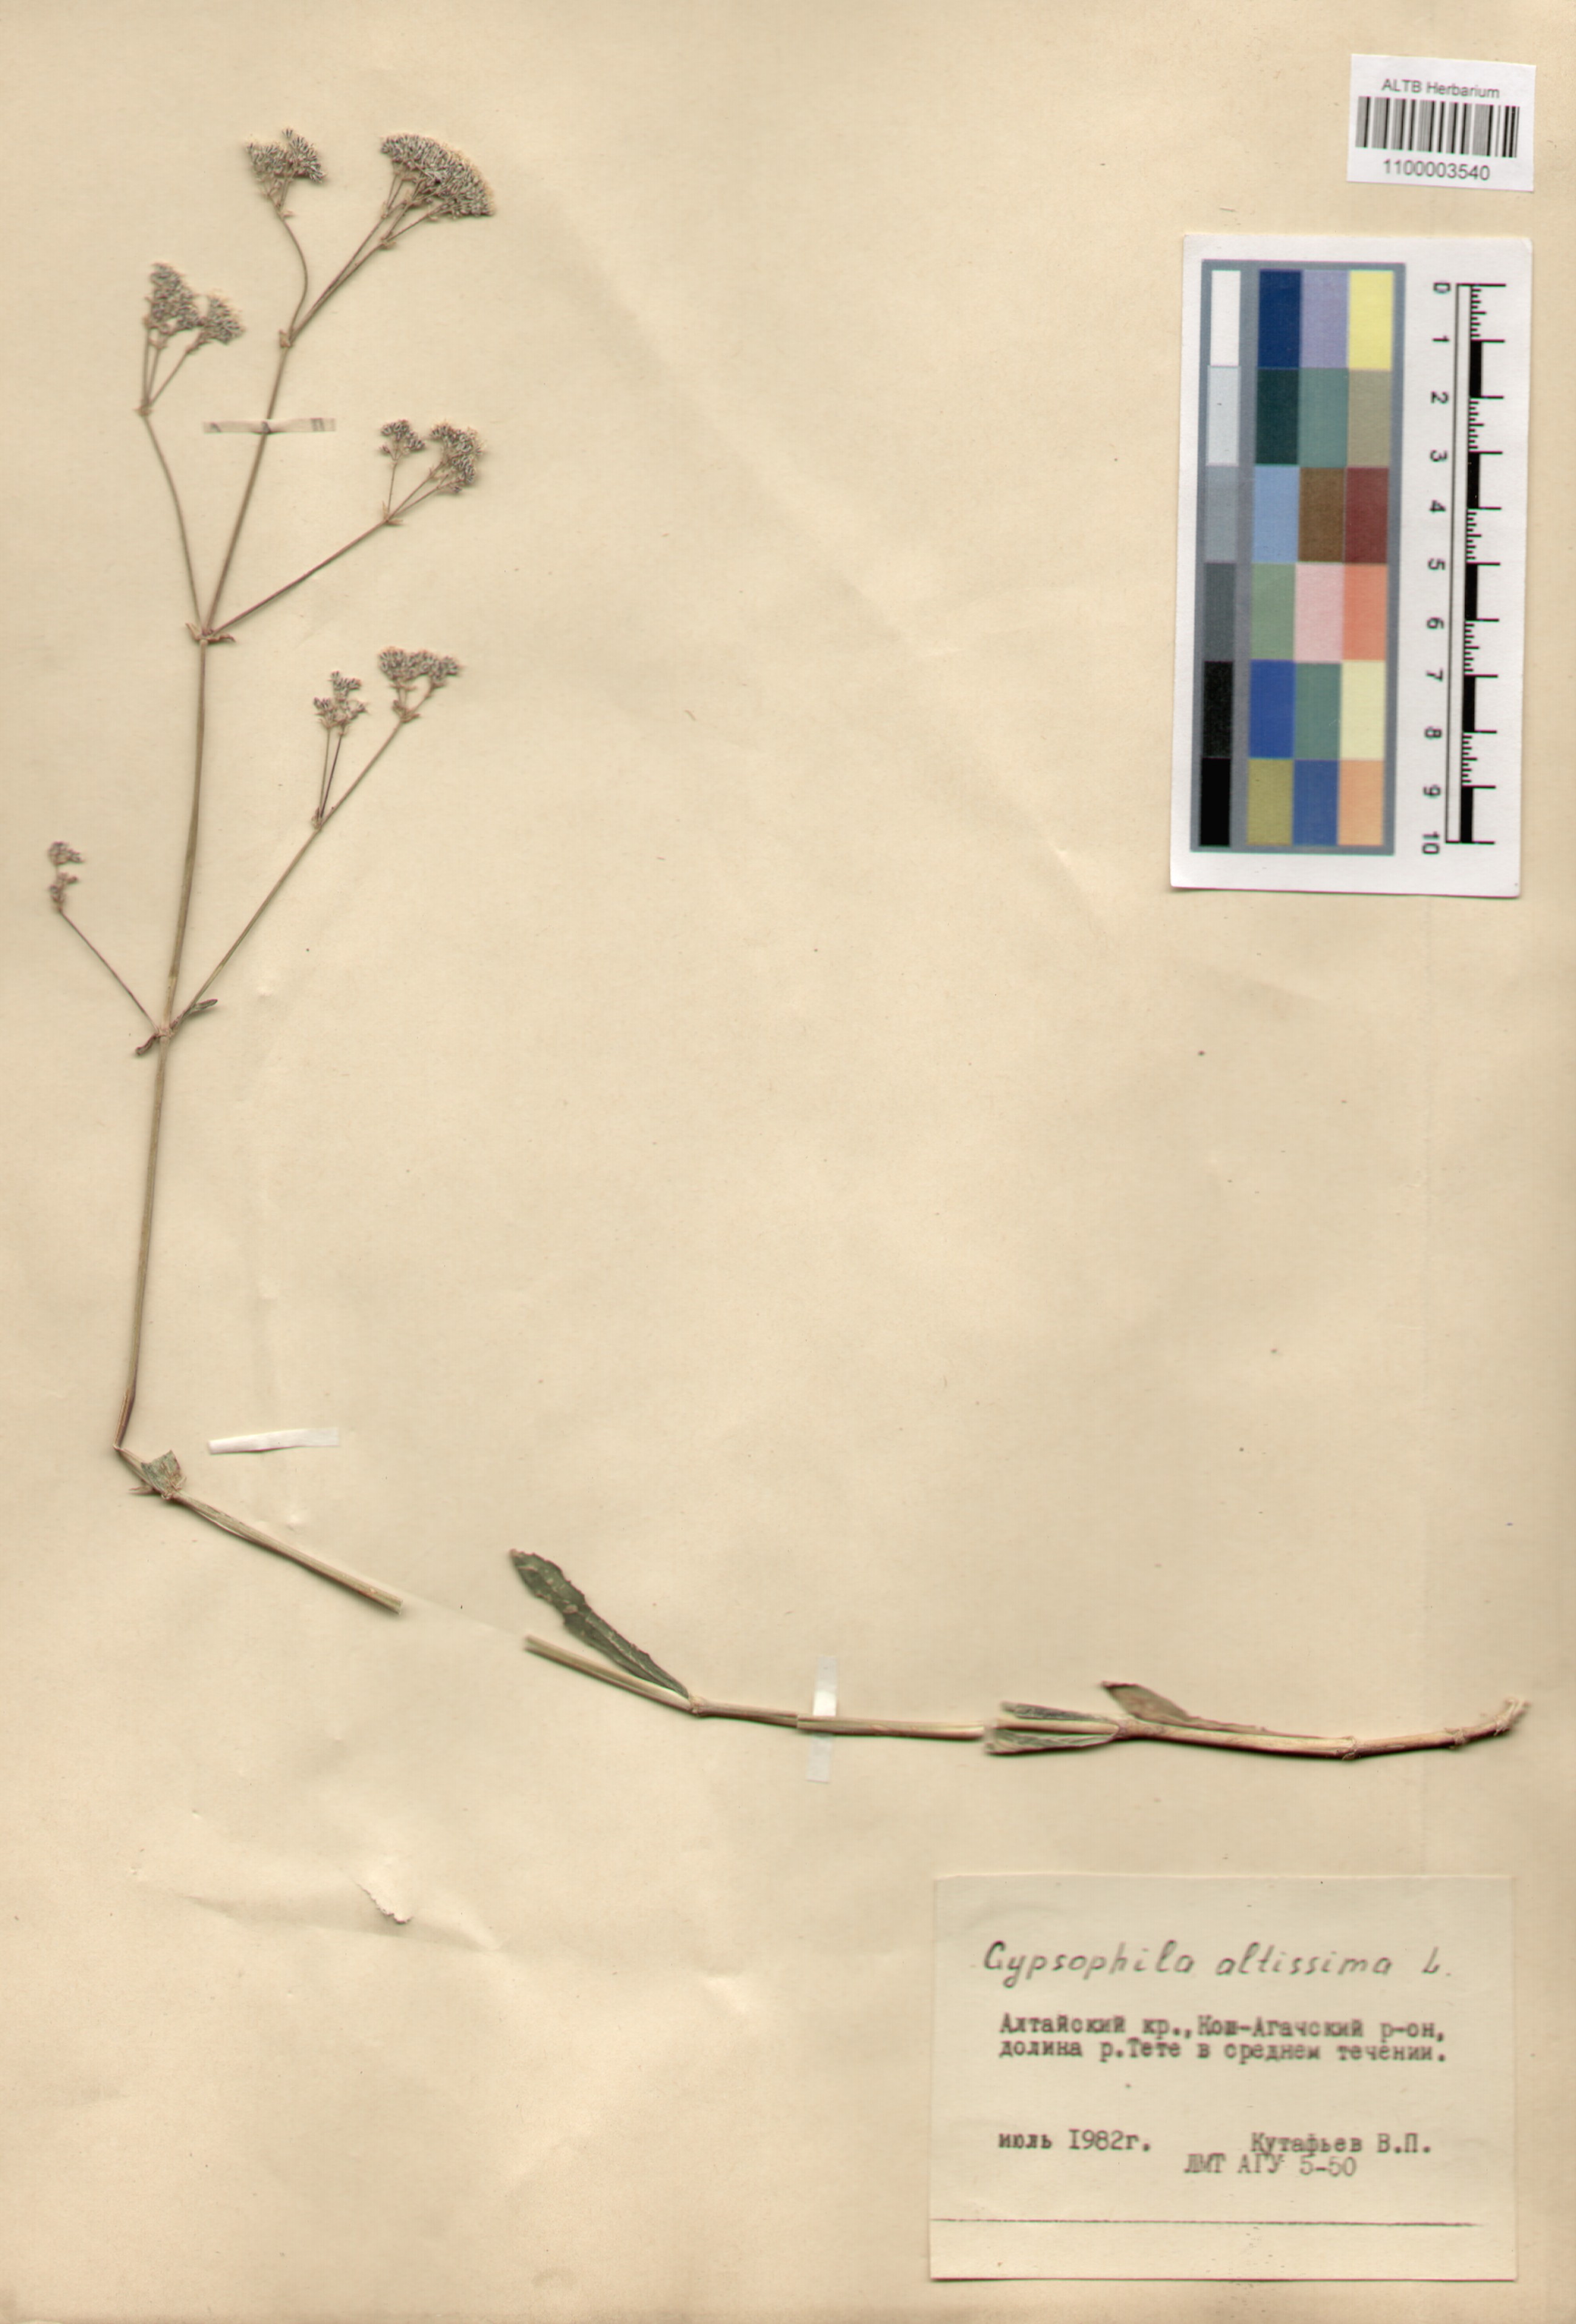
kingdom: Plantae
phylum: Tracheophyta
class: Magnoliopsida
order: Caryophyllales
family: Caryophyllaceae
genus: Gypsophila
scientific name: Gypsophila altissima
